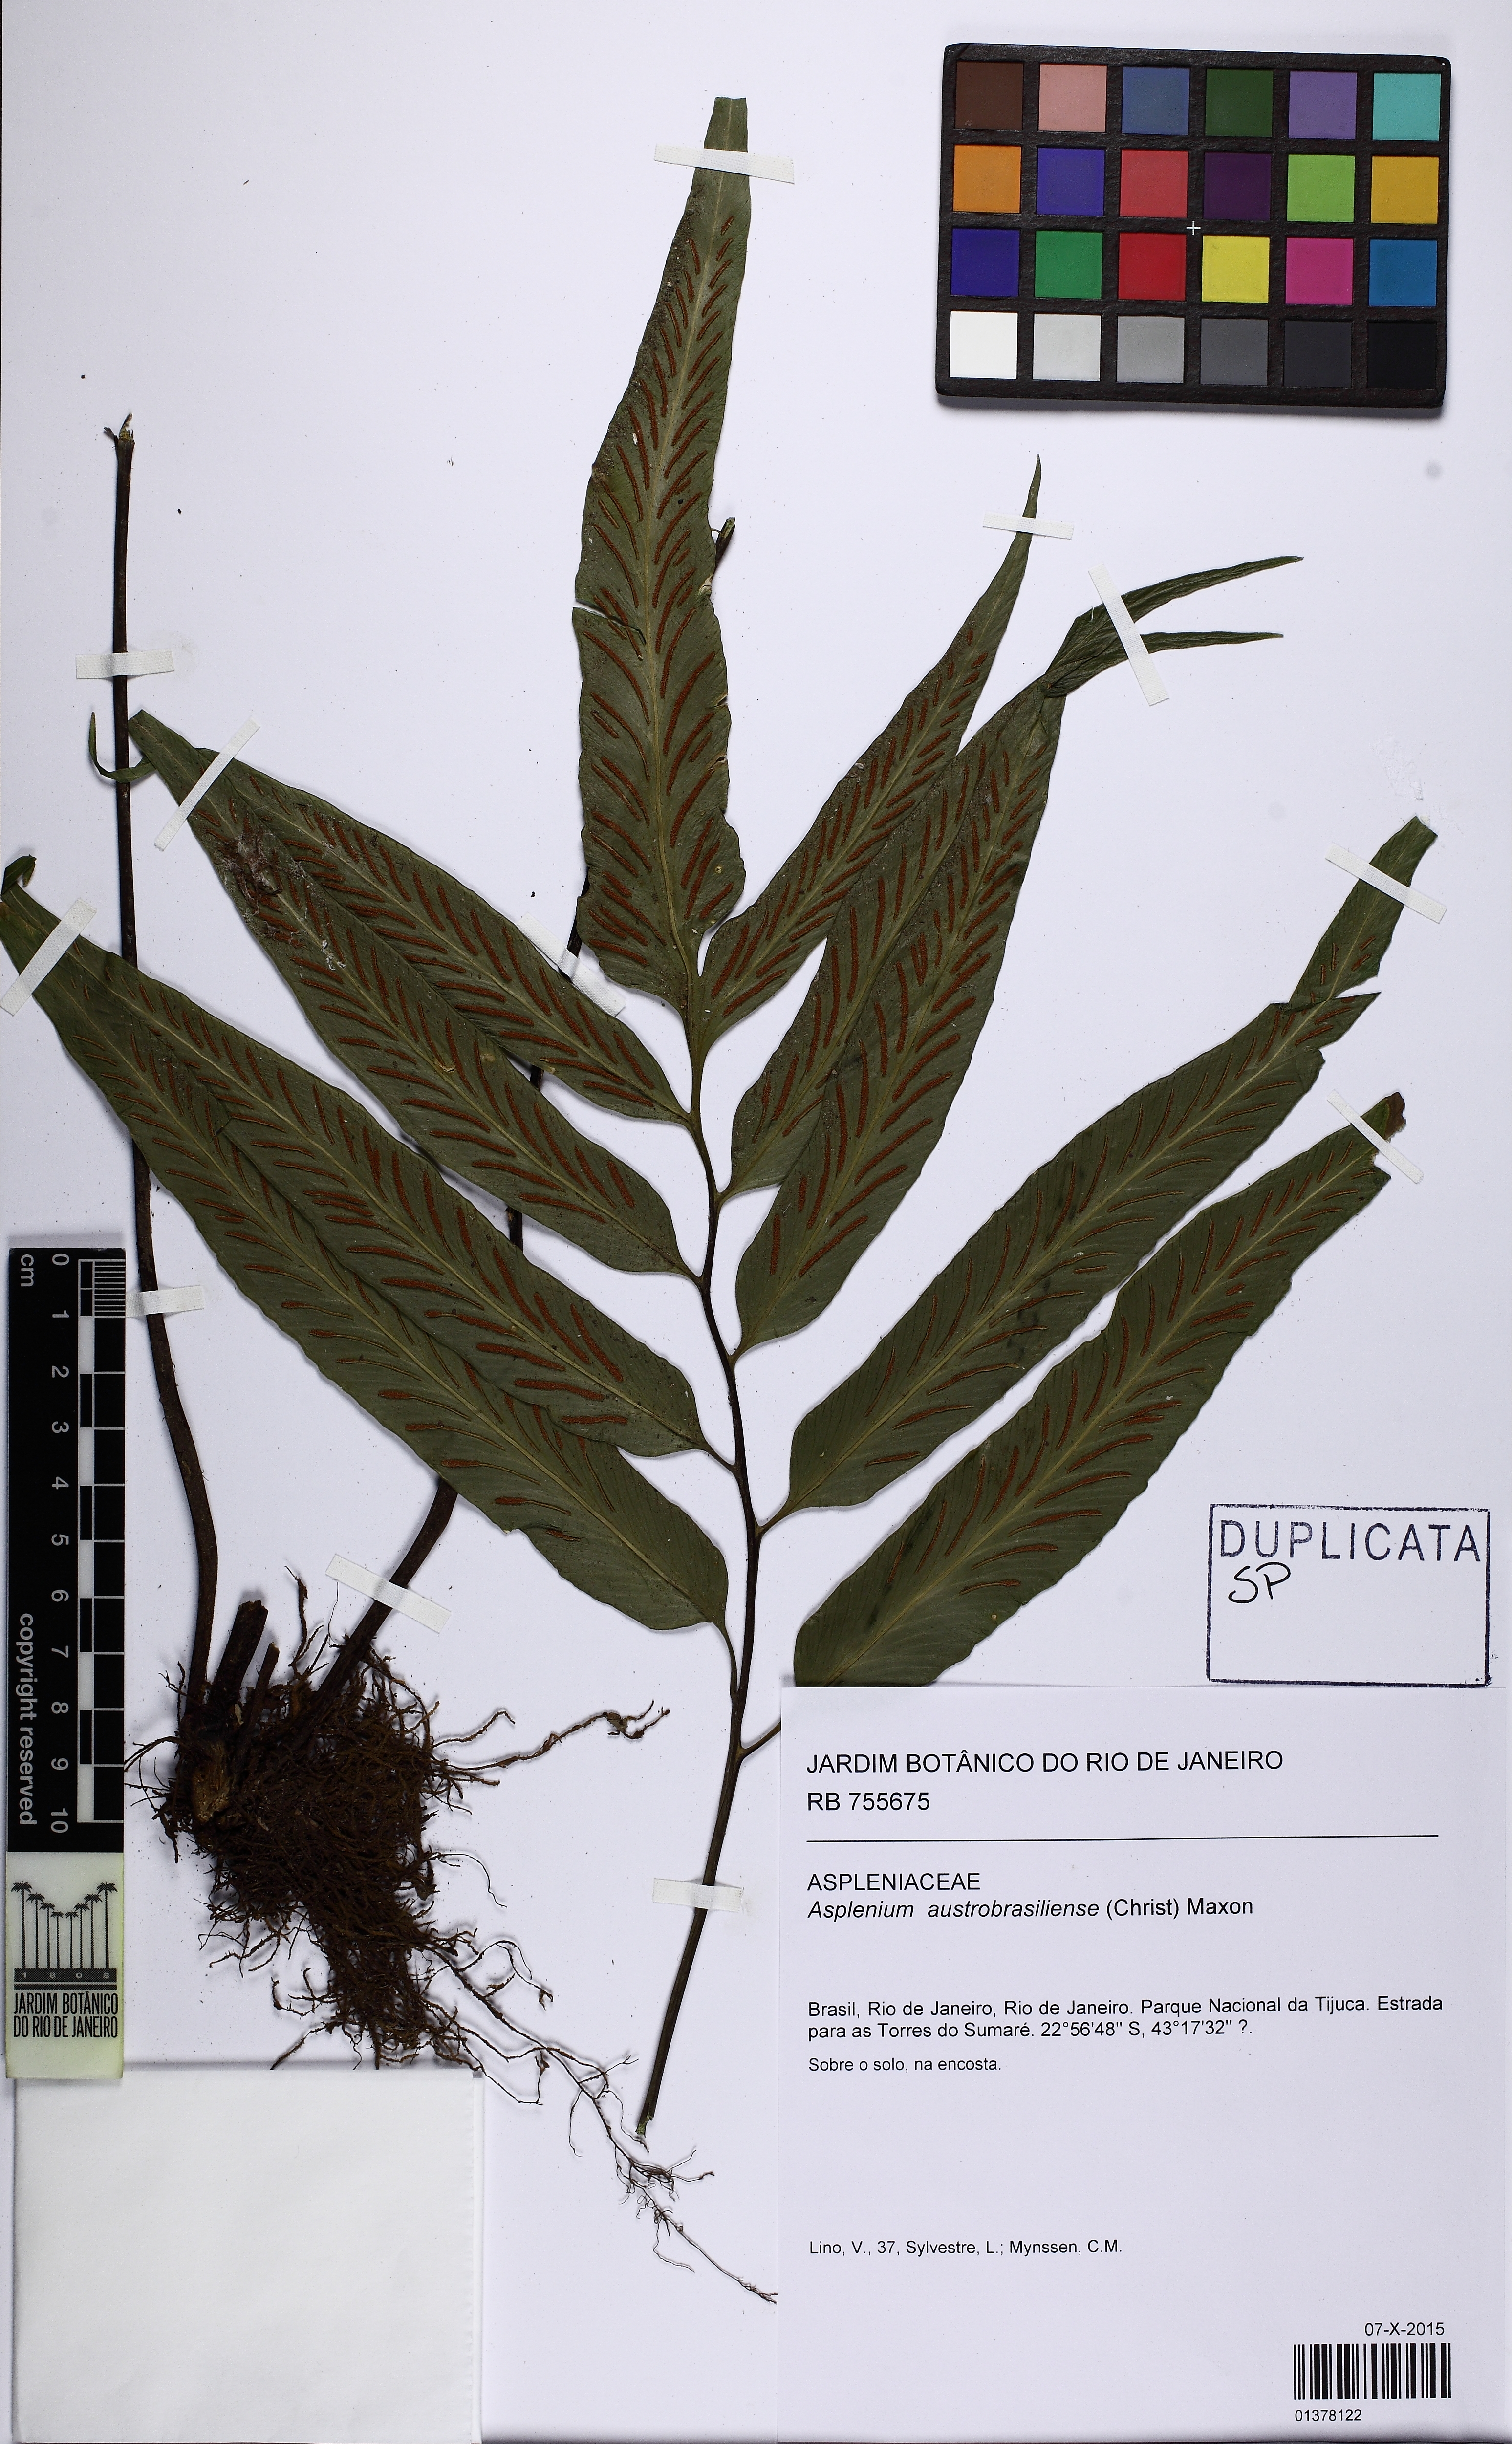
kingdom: Plantae
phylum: Tracheophyta
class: Polypodiopsida
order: Polypodiales
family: Aspleniaceae
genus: Asplenium
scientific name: Asplenium austrobrasiliense
